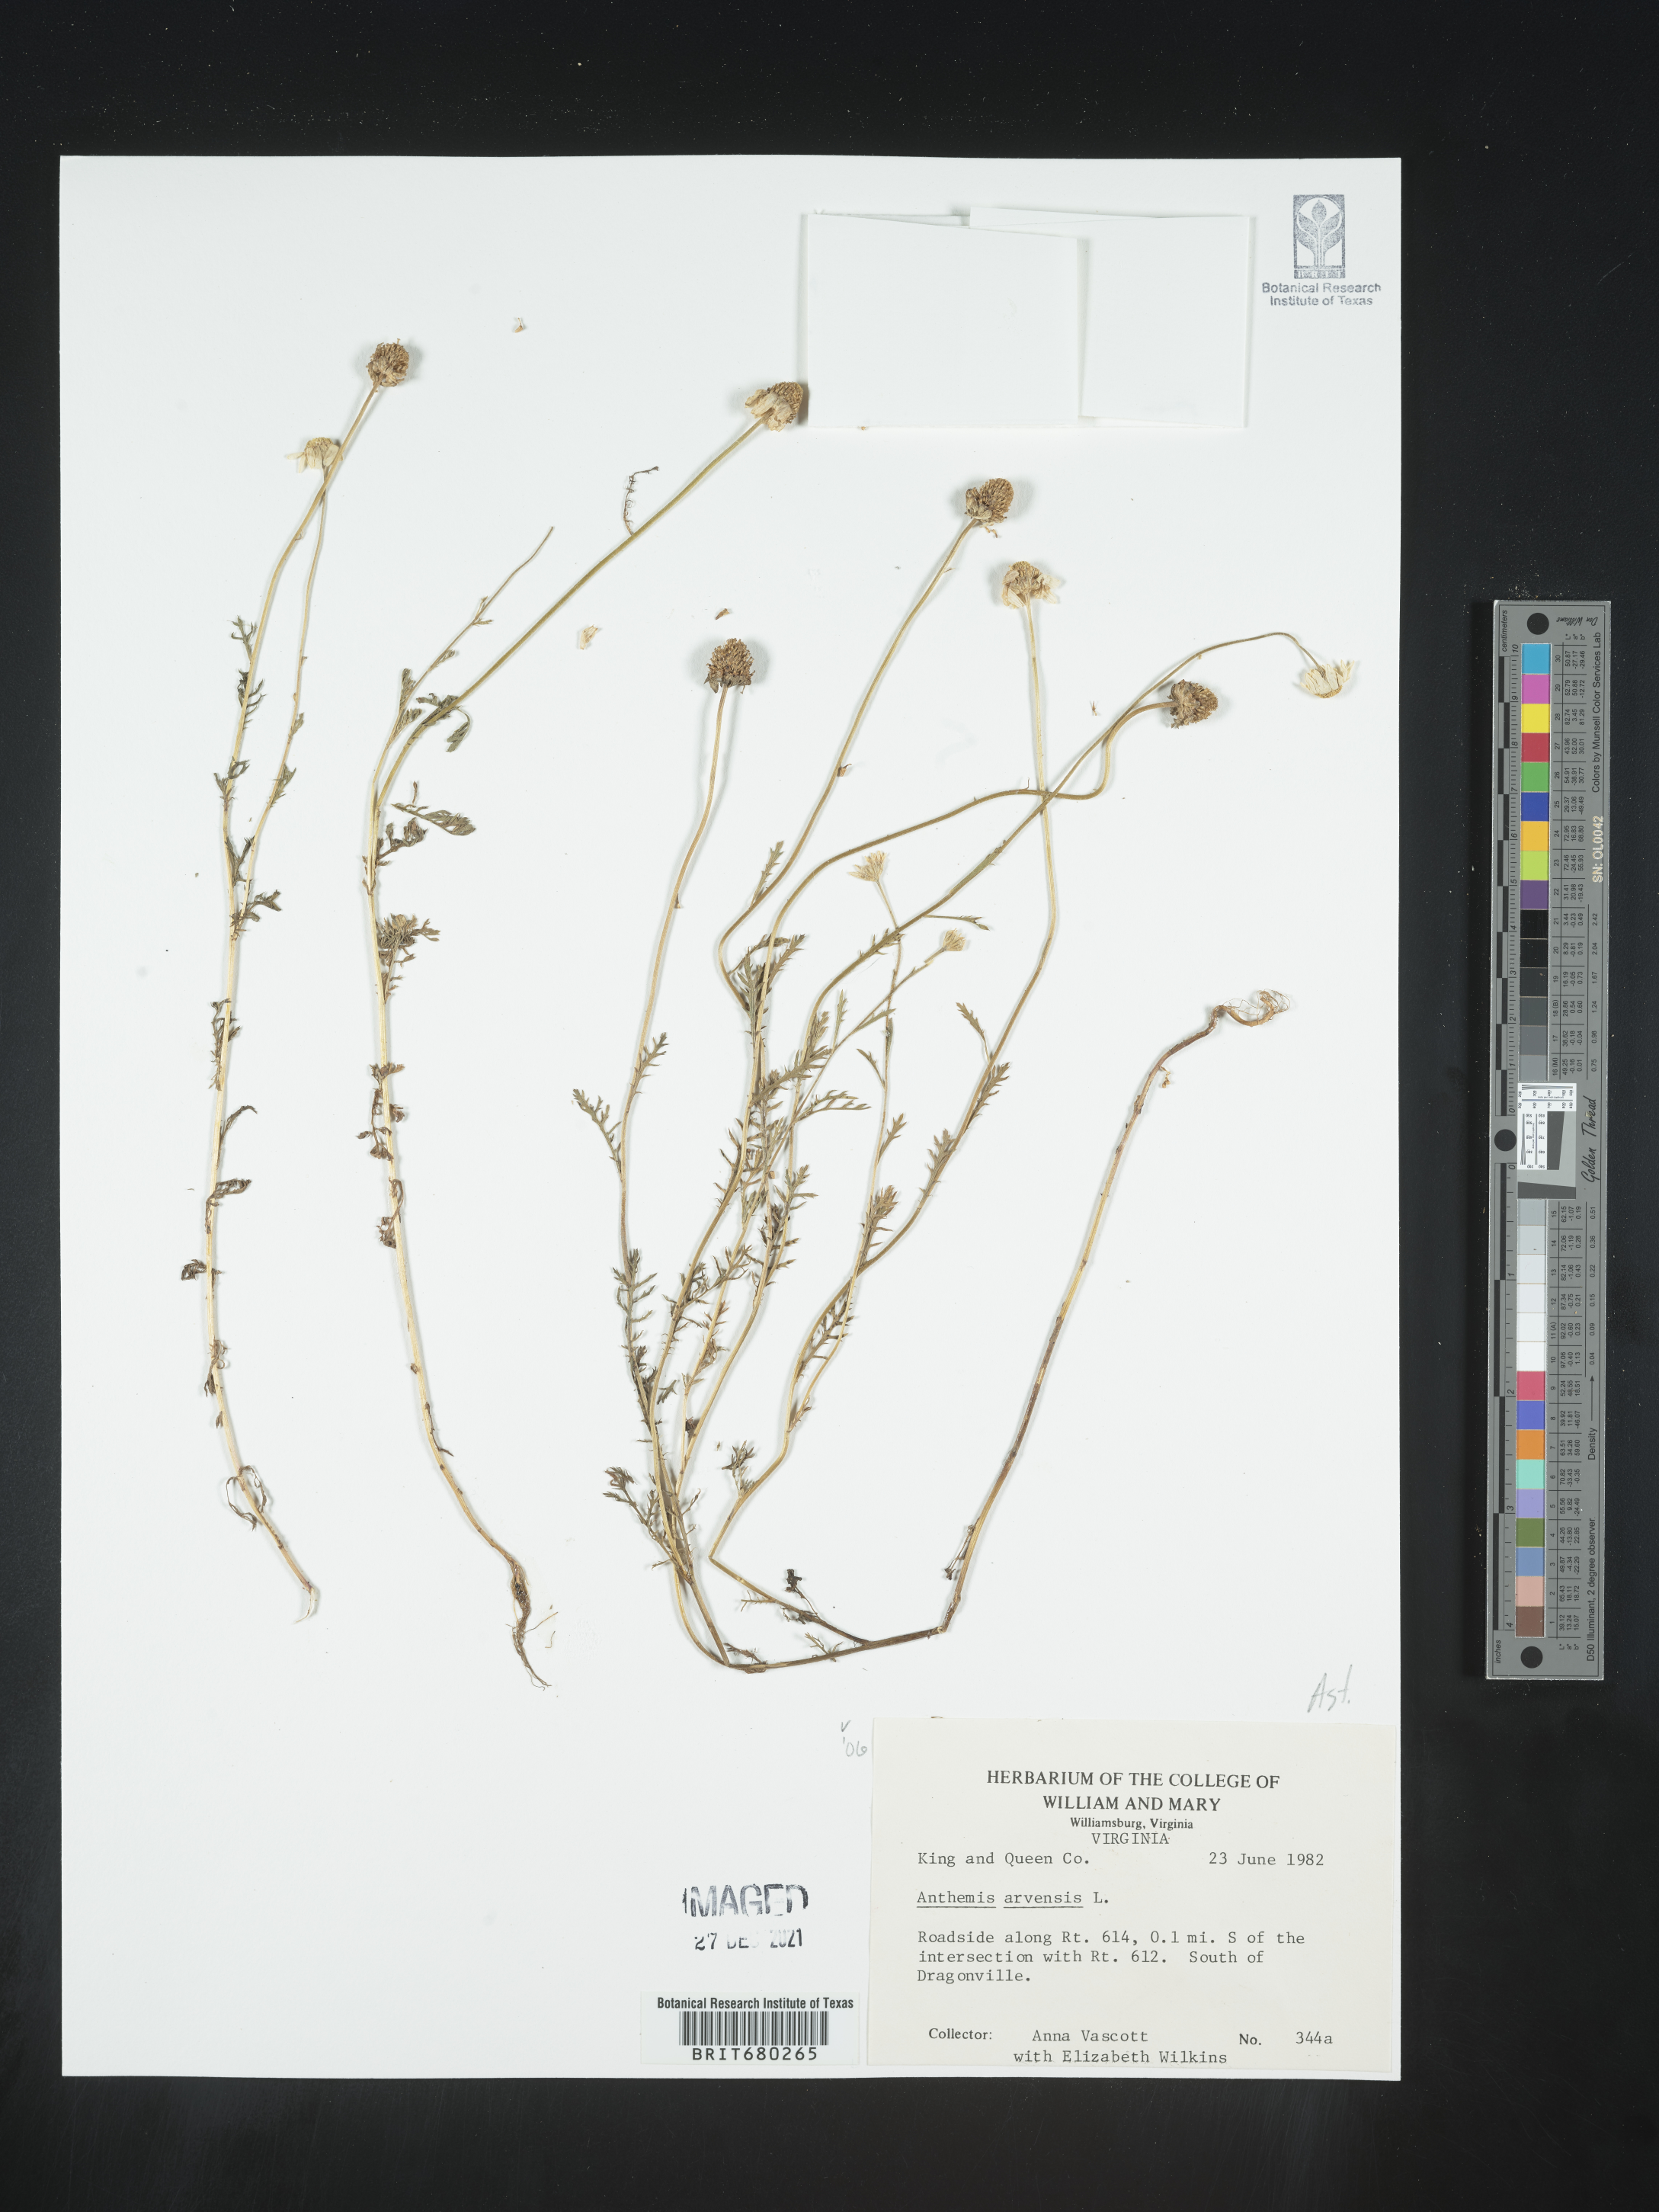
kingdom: Plantae
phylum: Tracheophyta
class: Magnoliopsida
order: Asterales
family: Asteraceae
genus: Anthemis
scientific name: Anthemis arvensis
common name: Corn chamomile
